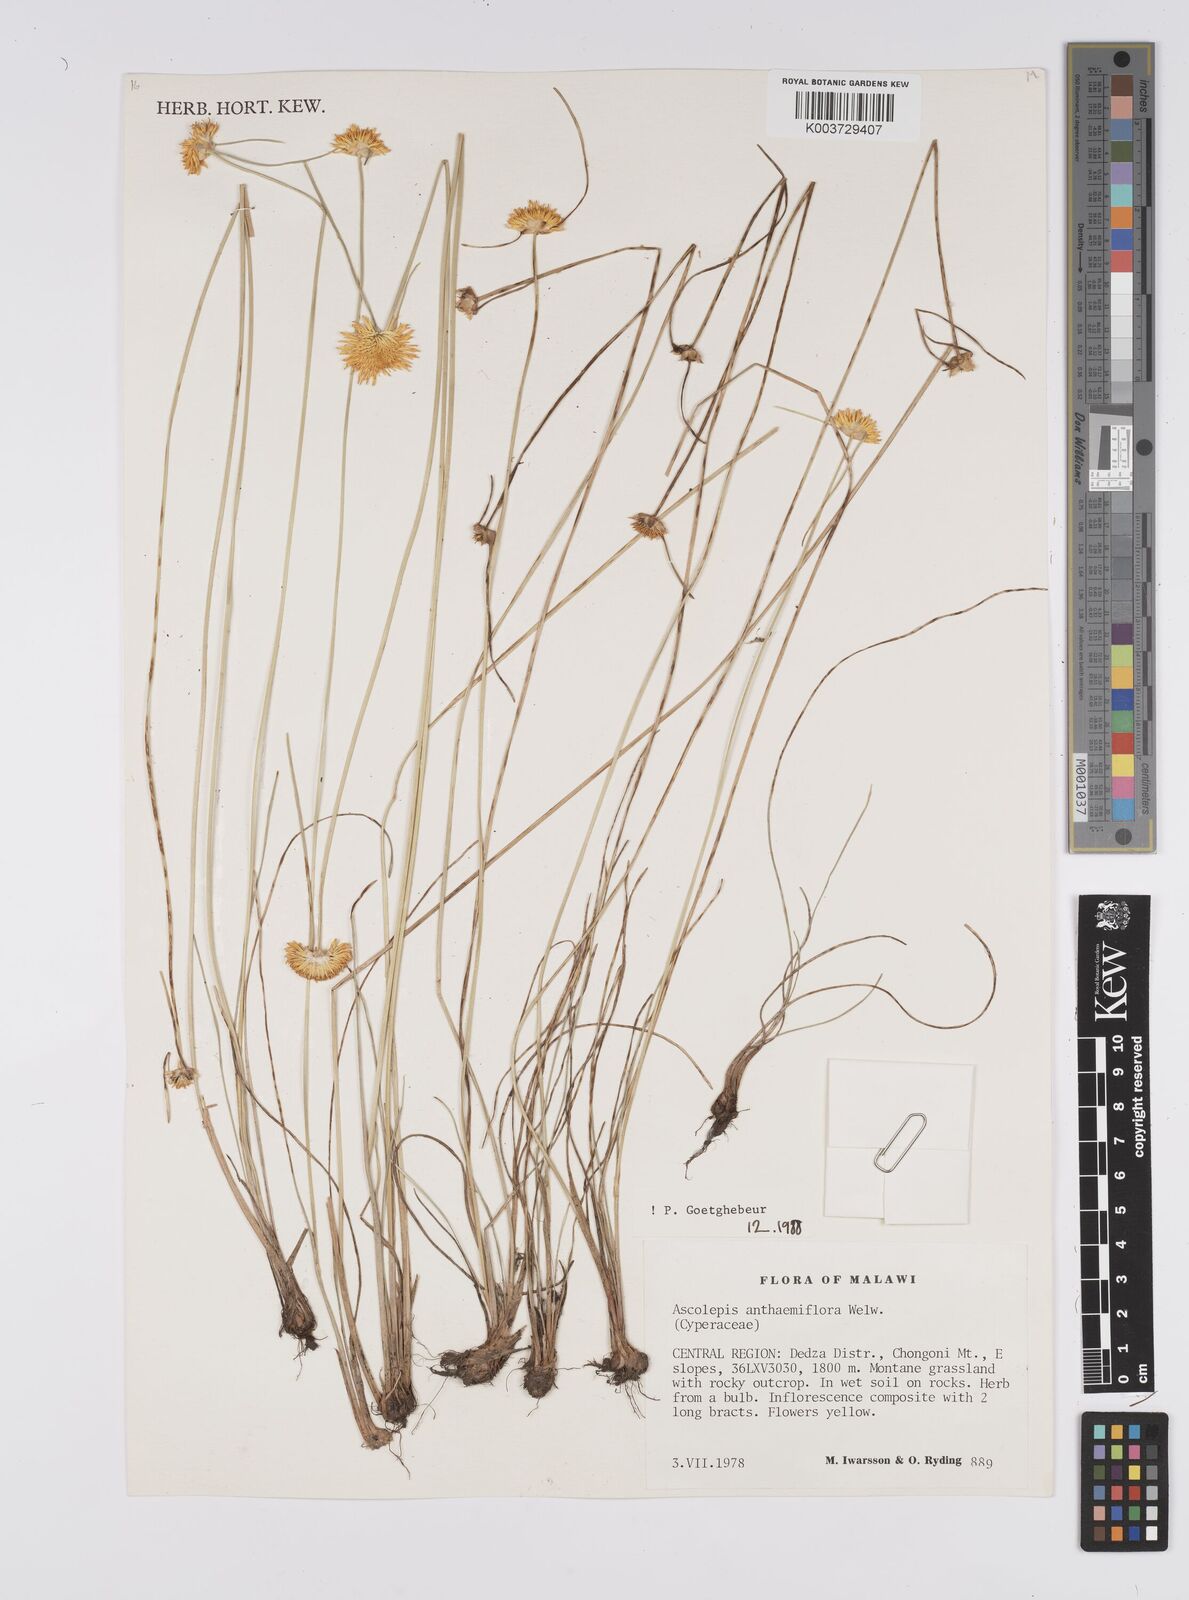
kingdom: Plantae
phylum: Tracheophyta
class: Liliopsida
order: Poales
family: Cyperaceae
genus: Cyperus
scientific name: Cyperus
